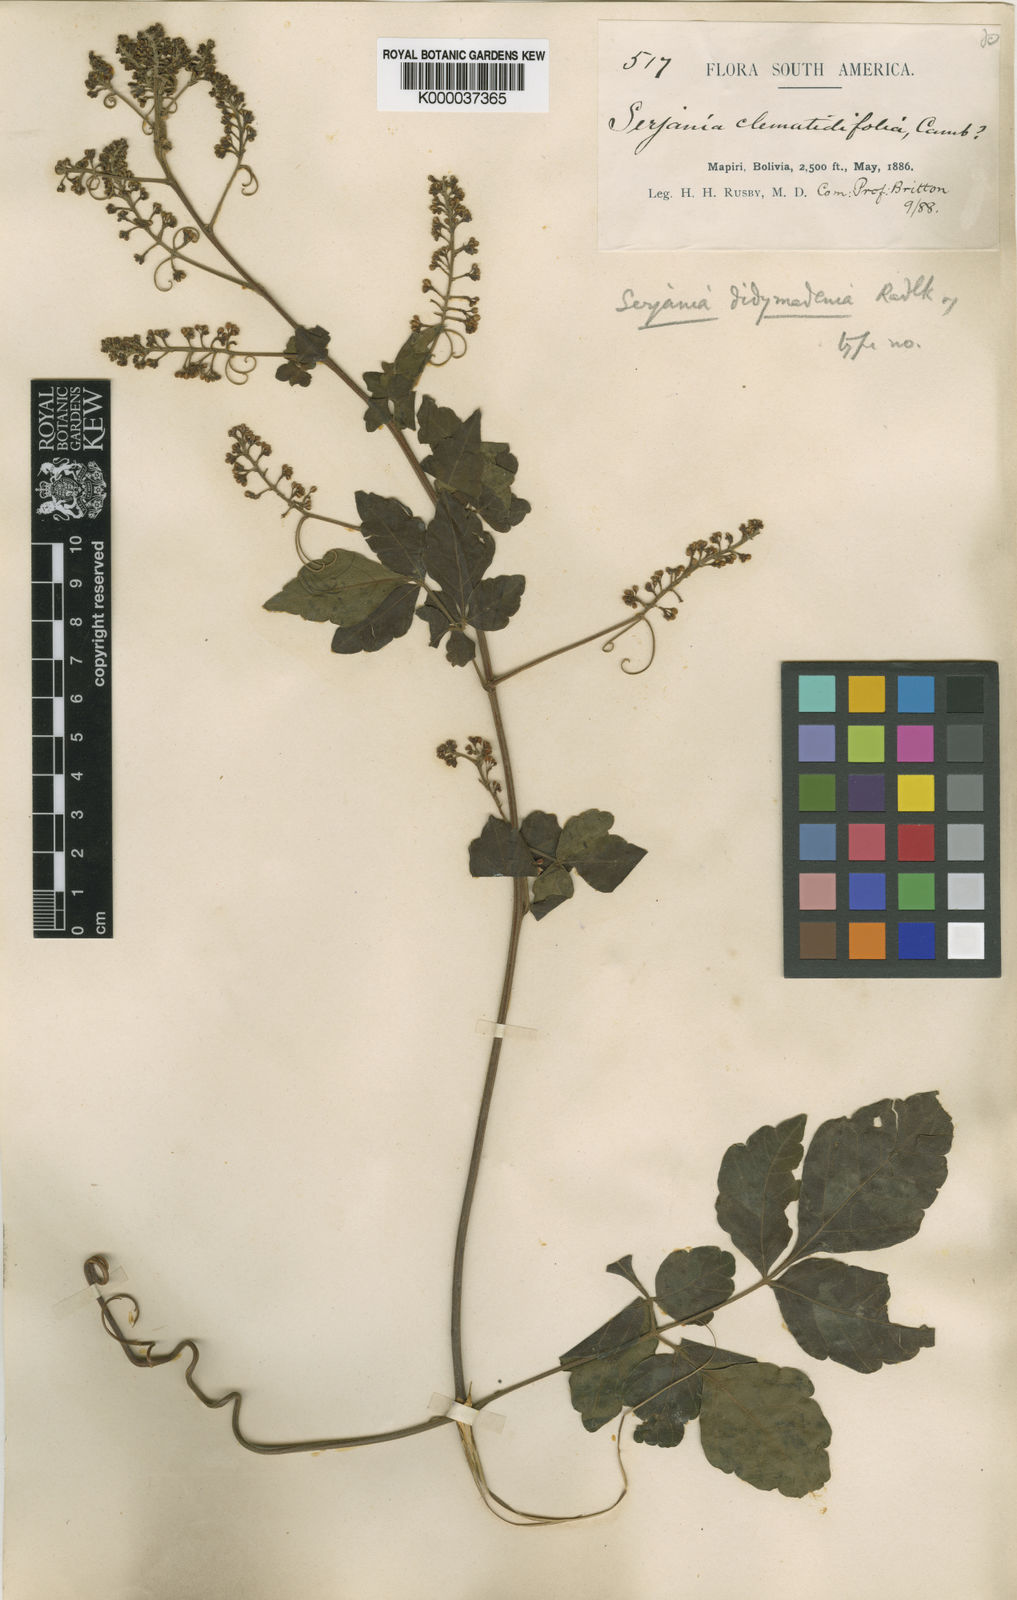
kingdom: Plantae
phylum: Tracheophyta
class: Magnoliopsida
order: Sapindales
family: Sapindaceae
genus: Serjania
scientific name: Serjania didymadenia
